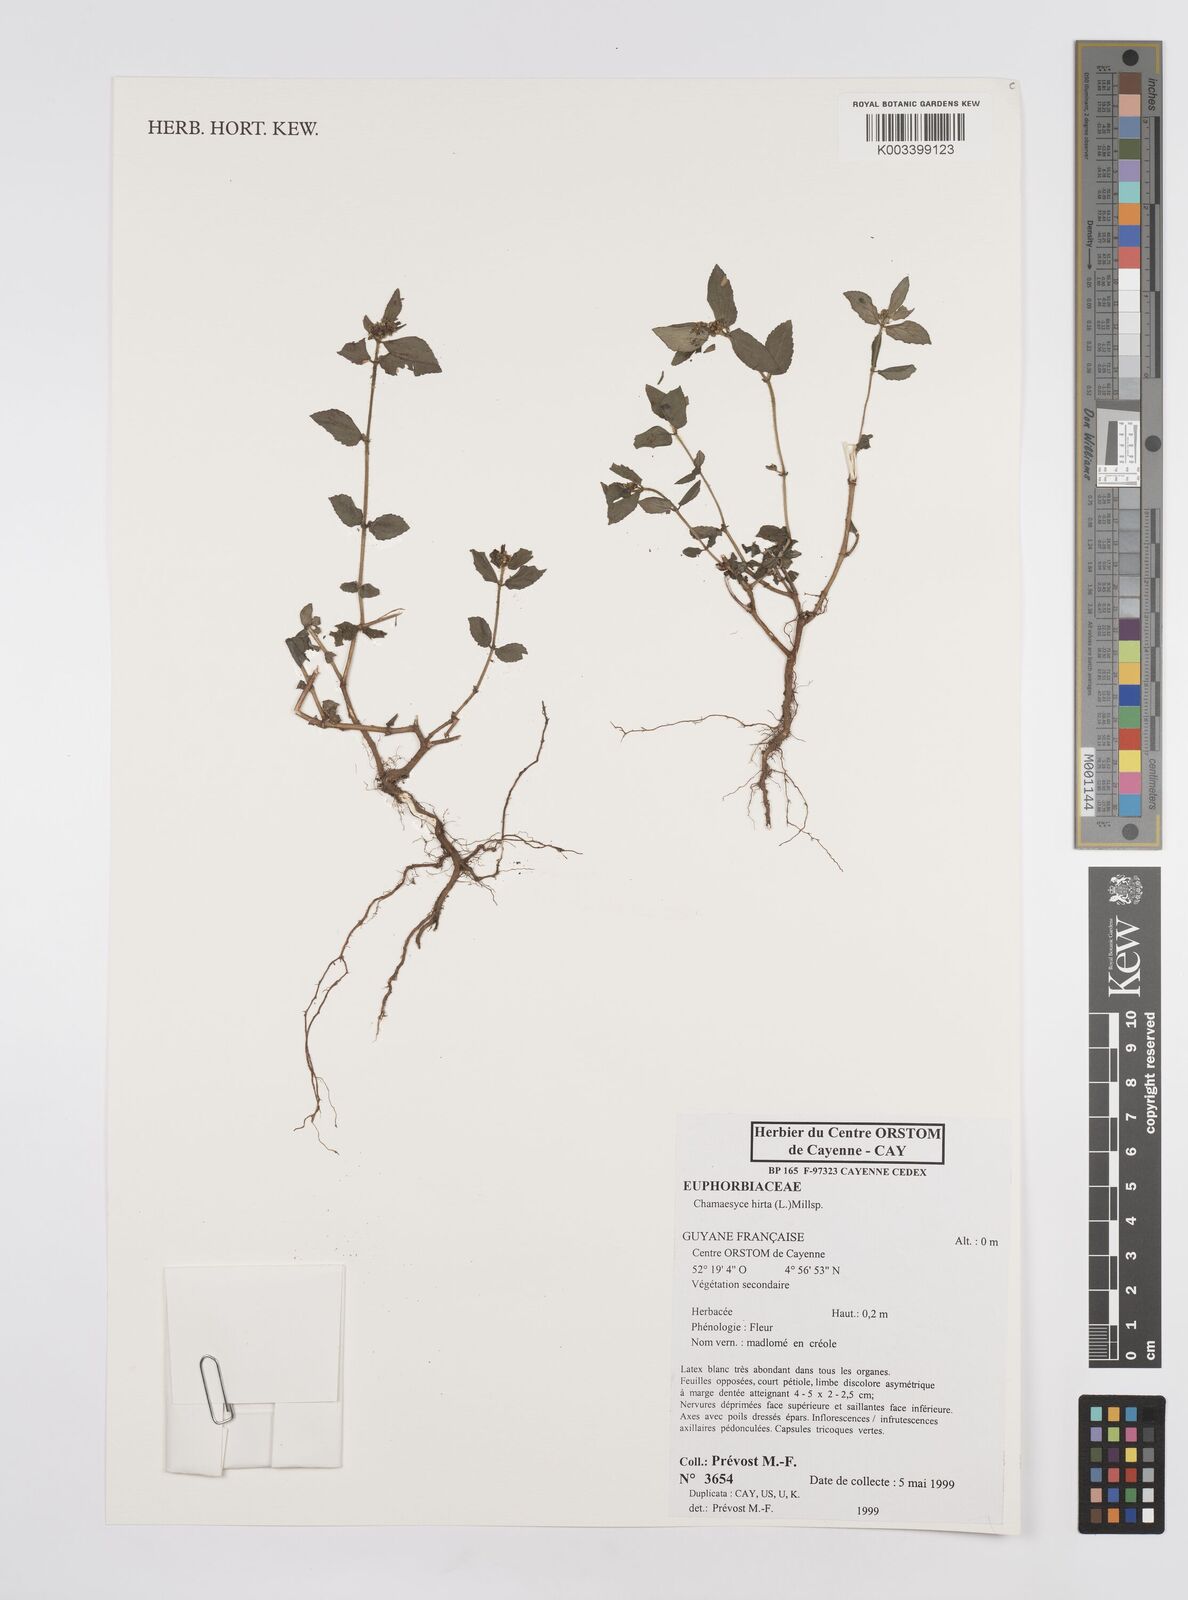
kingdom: Plantae
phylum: Tracheophyta
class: Magnoliopsida
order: Malpighiales
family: Euphorbiaceae
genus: Euphorbia
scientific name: Euphorbia hirta
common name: Pillpod sandmat
